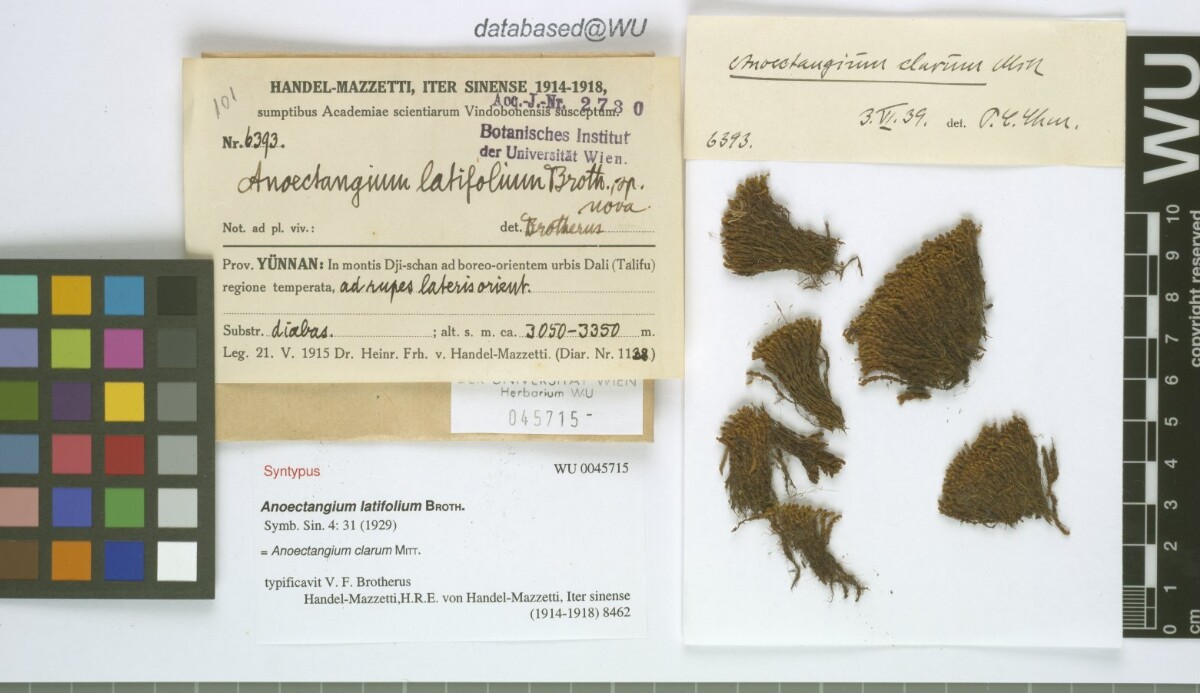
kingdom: Plantae
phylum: Bryophyta
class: Bryopsida
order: Pottiales
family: Pottiaceae
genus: Anoectangium
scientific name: Anoectangium clarum
